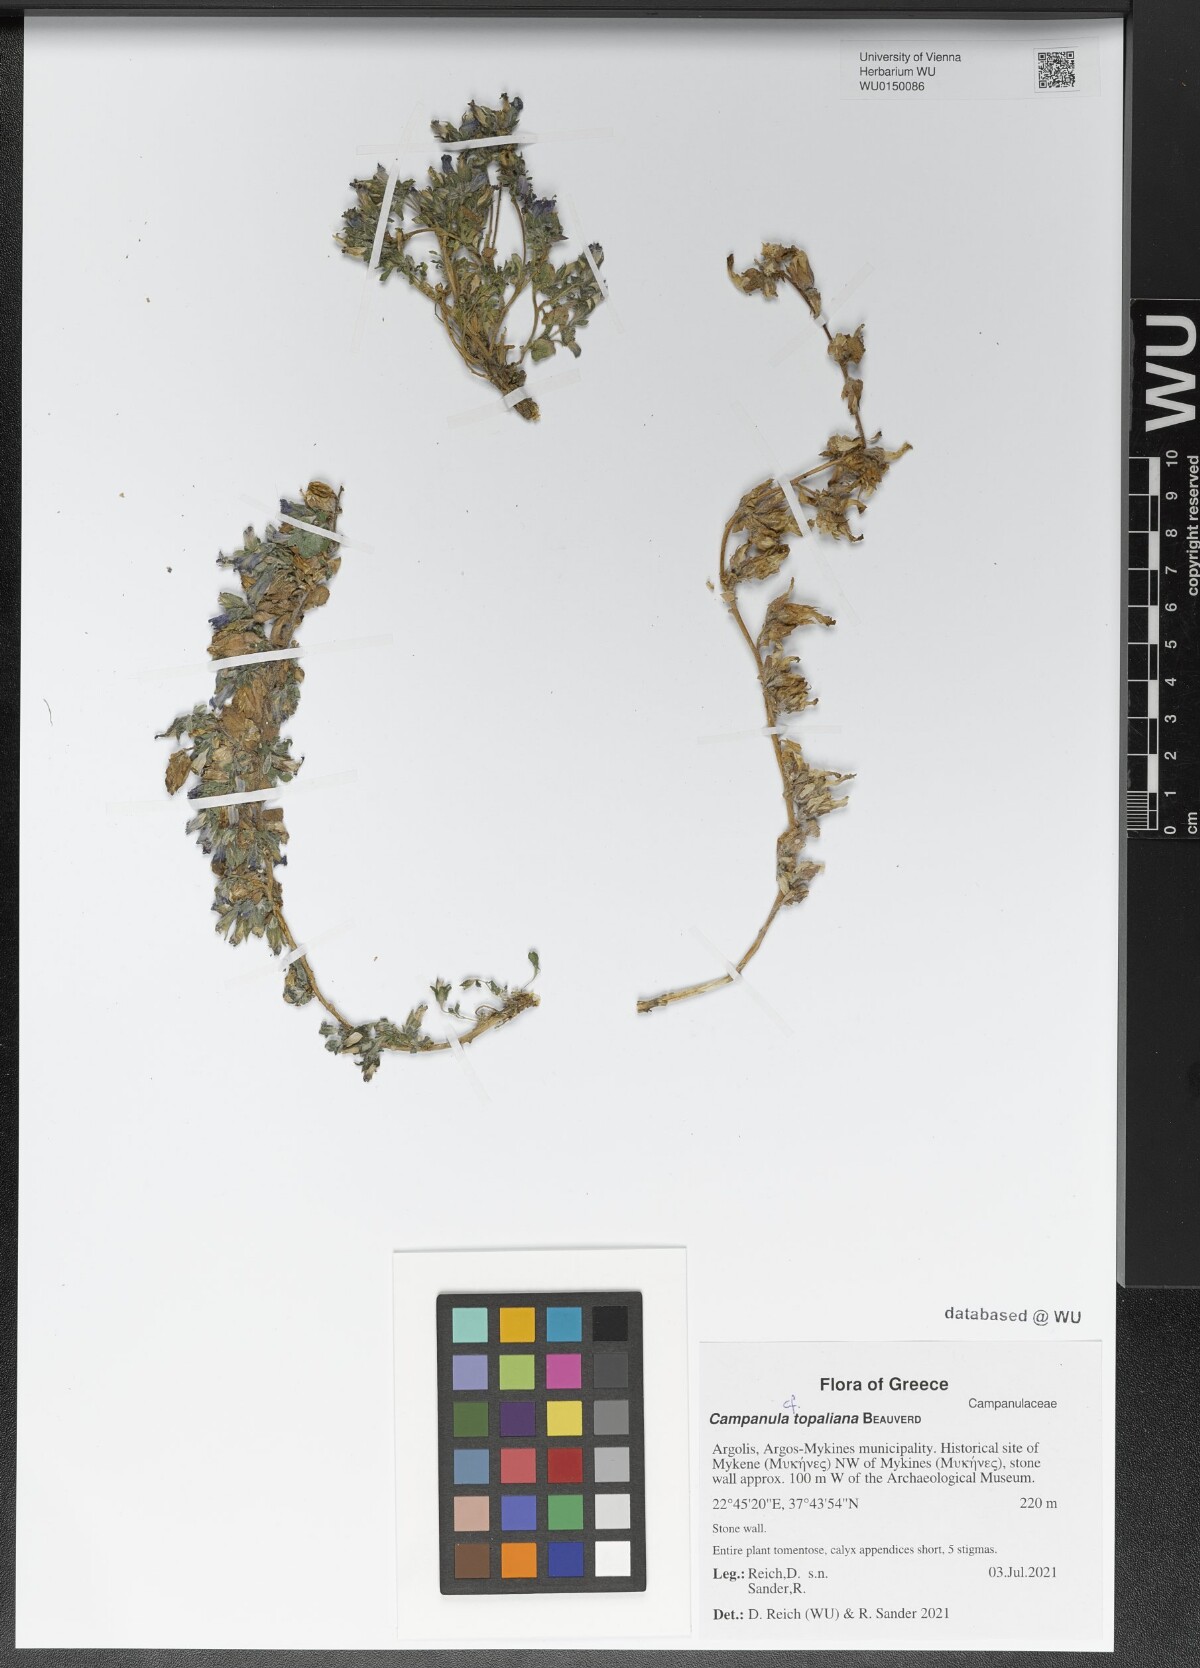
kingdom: Plantae
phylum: Tracheophyta
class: Magnoliopsida
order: Asterales
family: Campanulaceae
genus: Campanula
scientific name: Campanula topaliana
